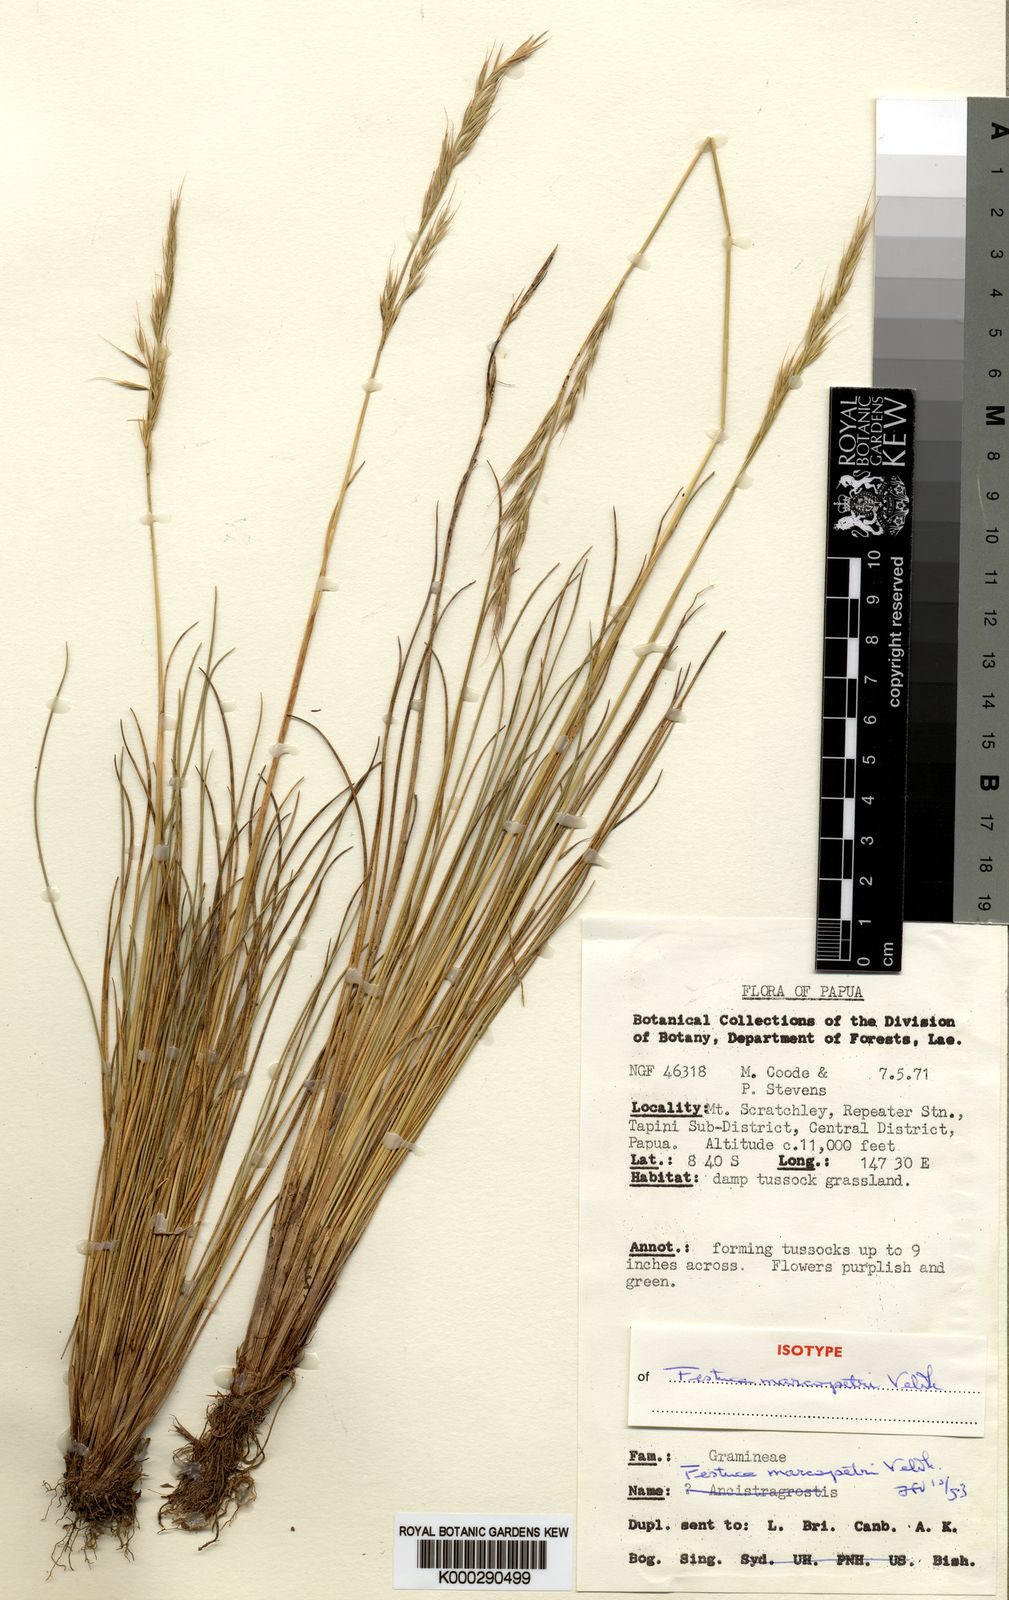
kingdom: Plantae
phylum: Tracheophyta
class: Liliopsida
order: Poales
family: Poaceae
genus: Festuca
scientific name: Festuca marcopetrii
